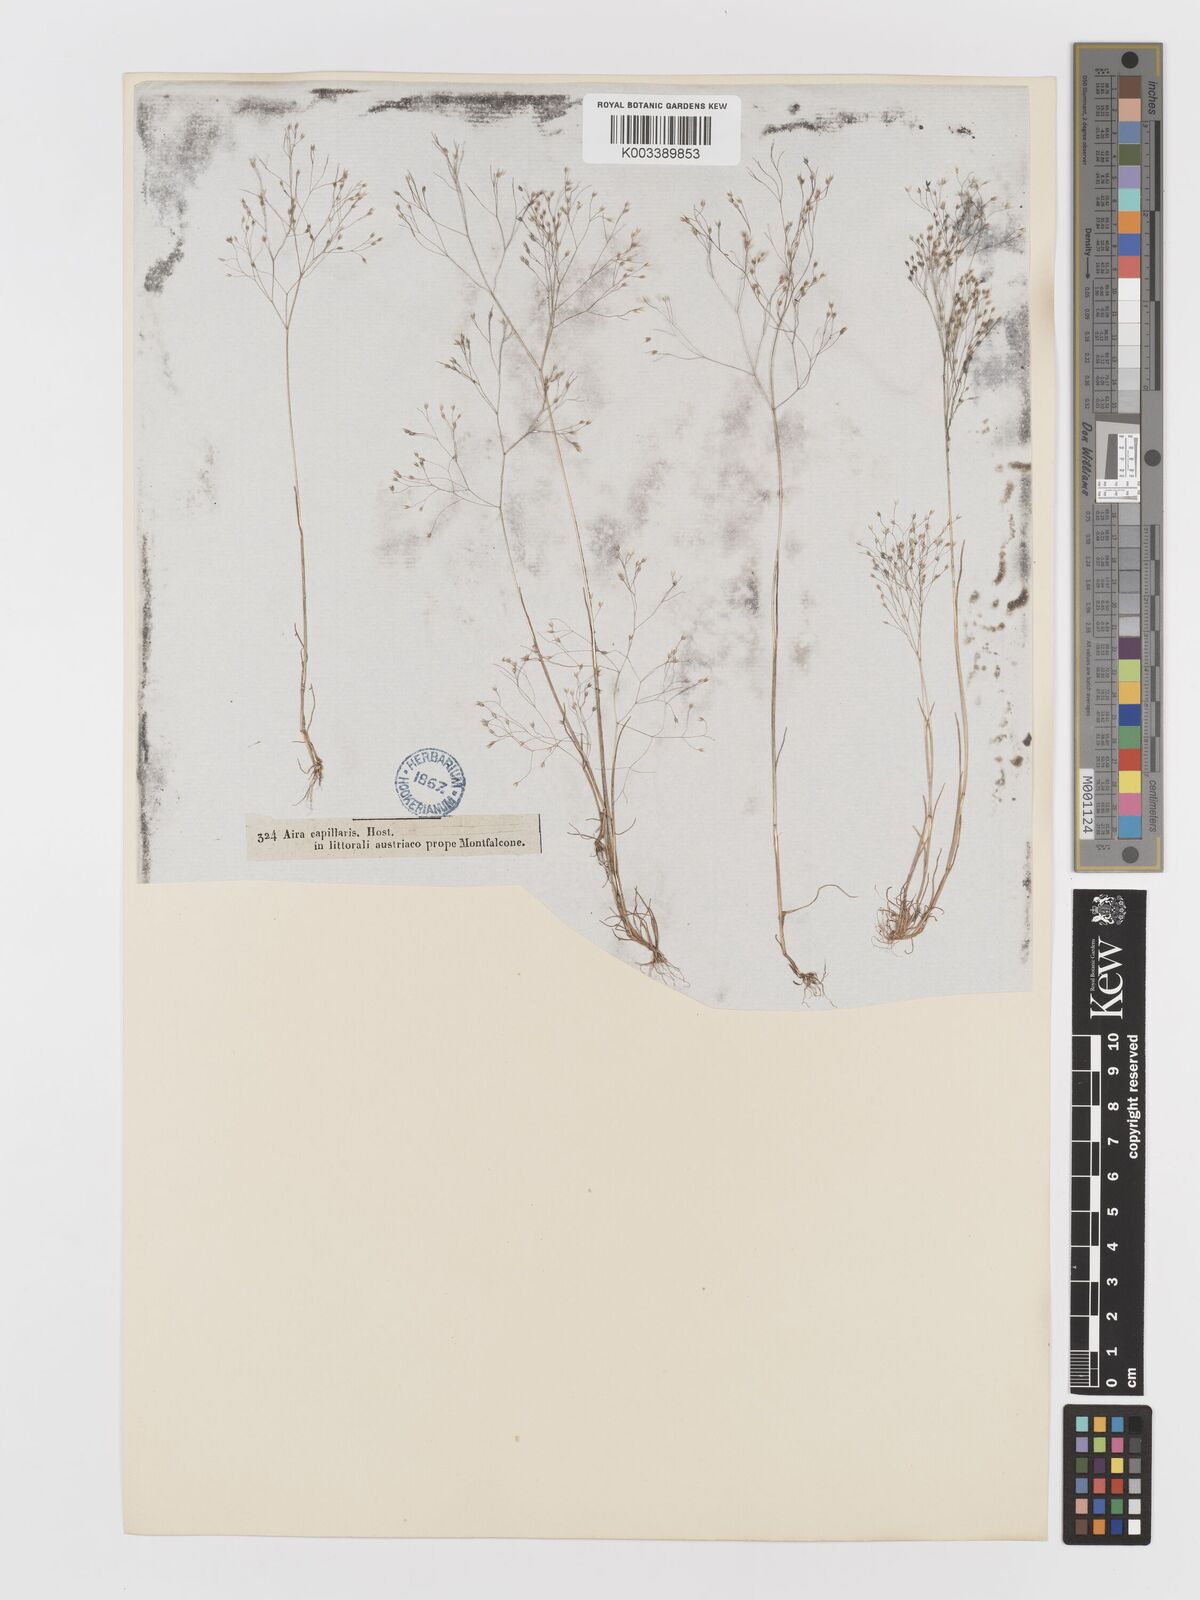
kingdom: Plantae
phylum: Tracheophyta
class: Liliopsida
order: Poales
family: Poaceae
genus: Aira
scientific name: Aira elegans
